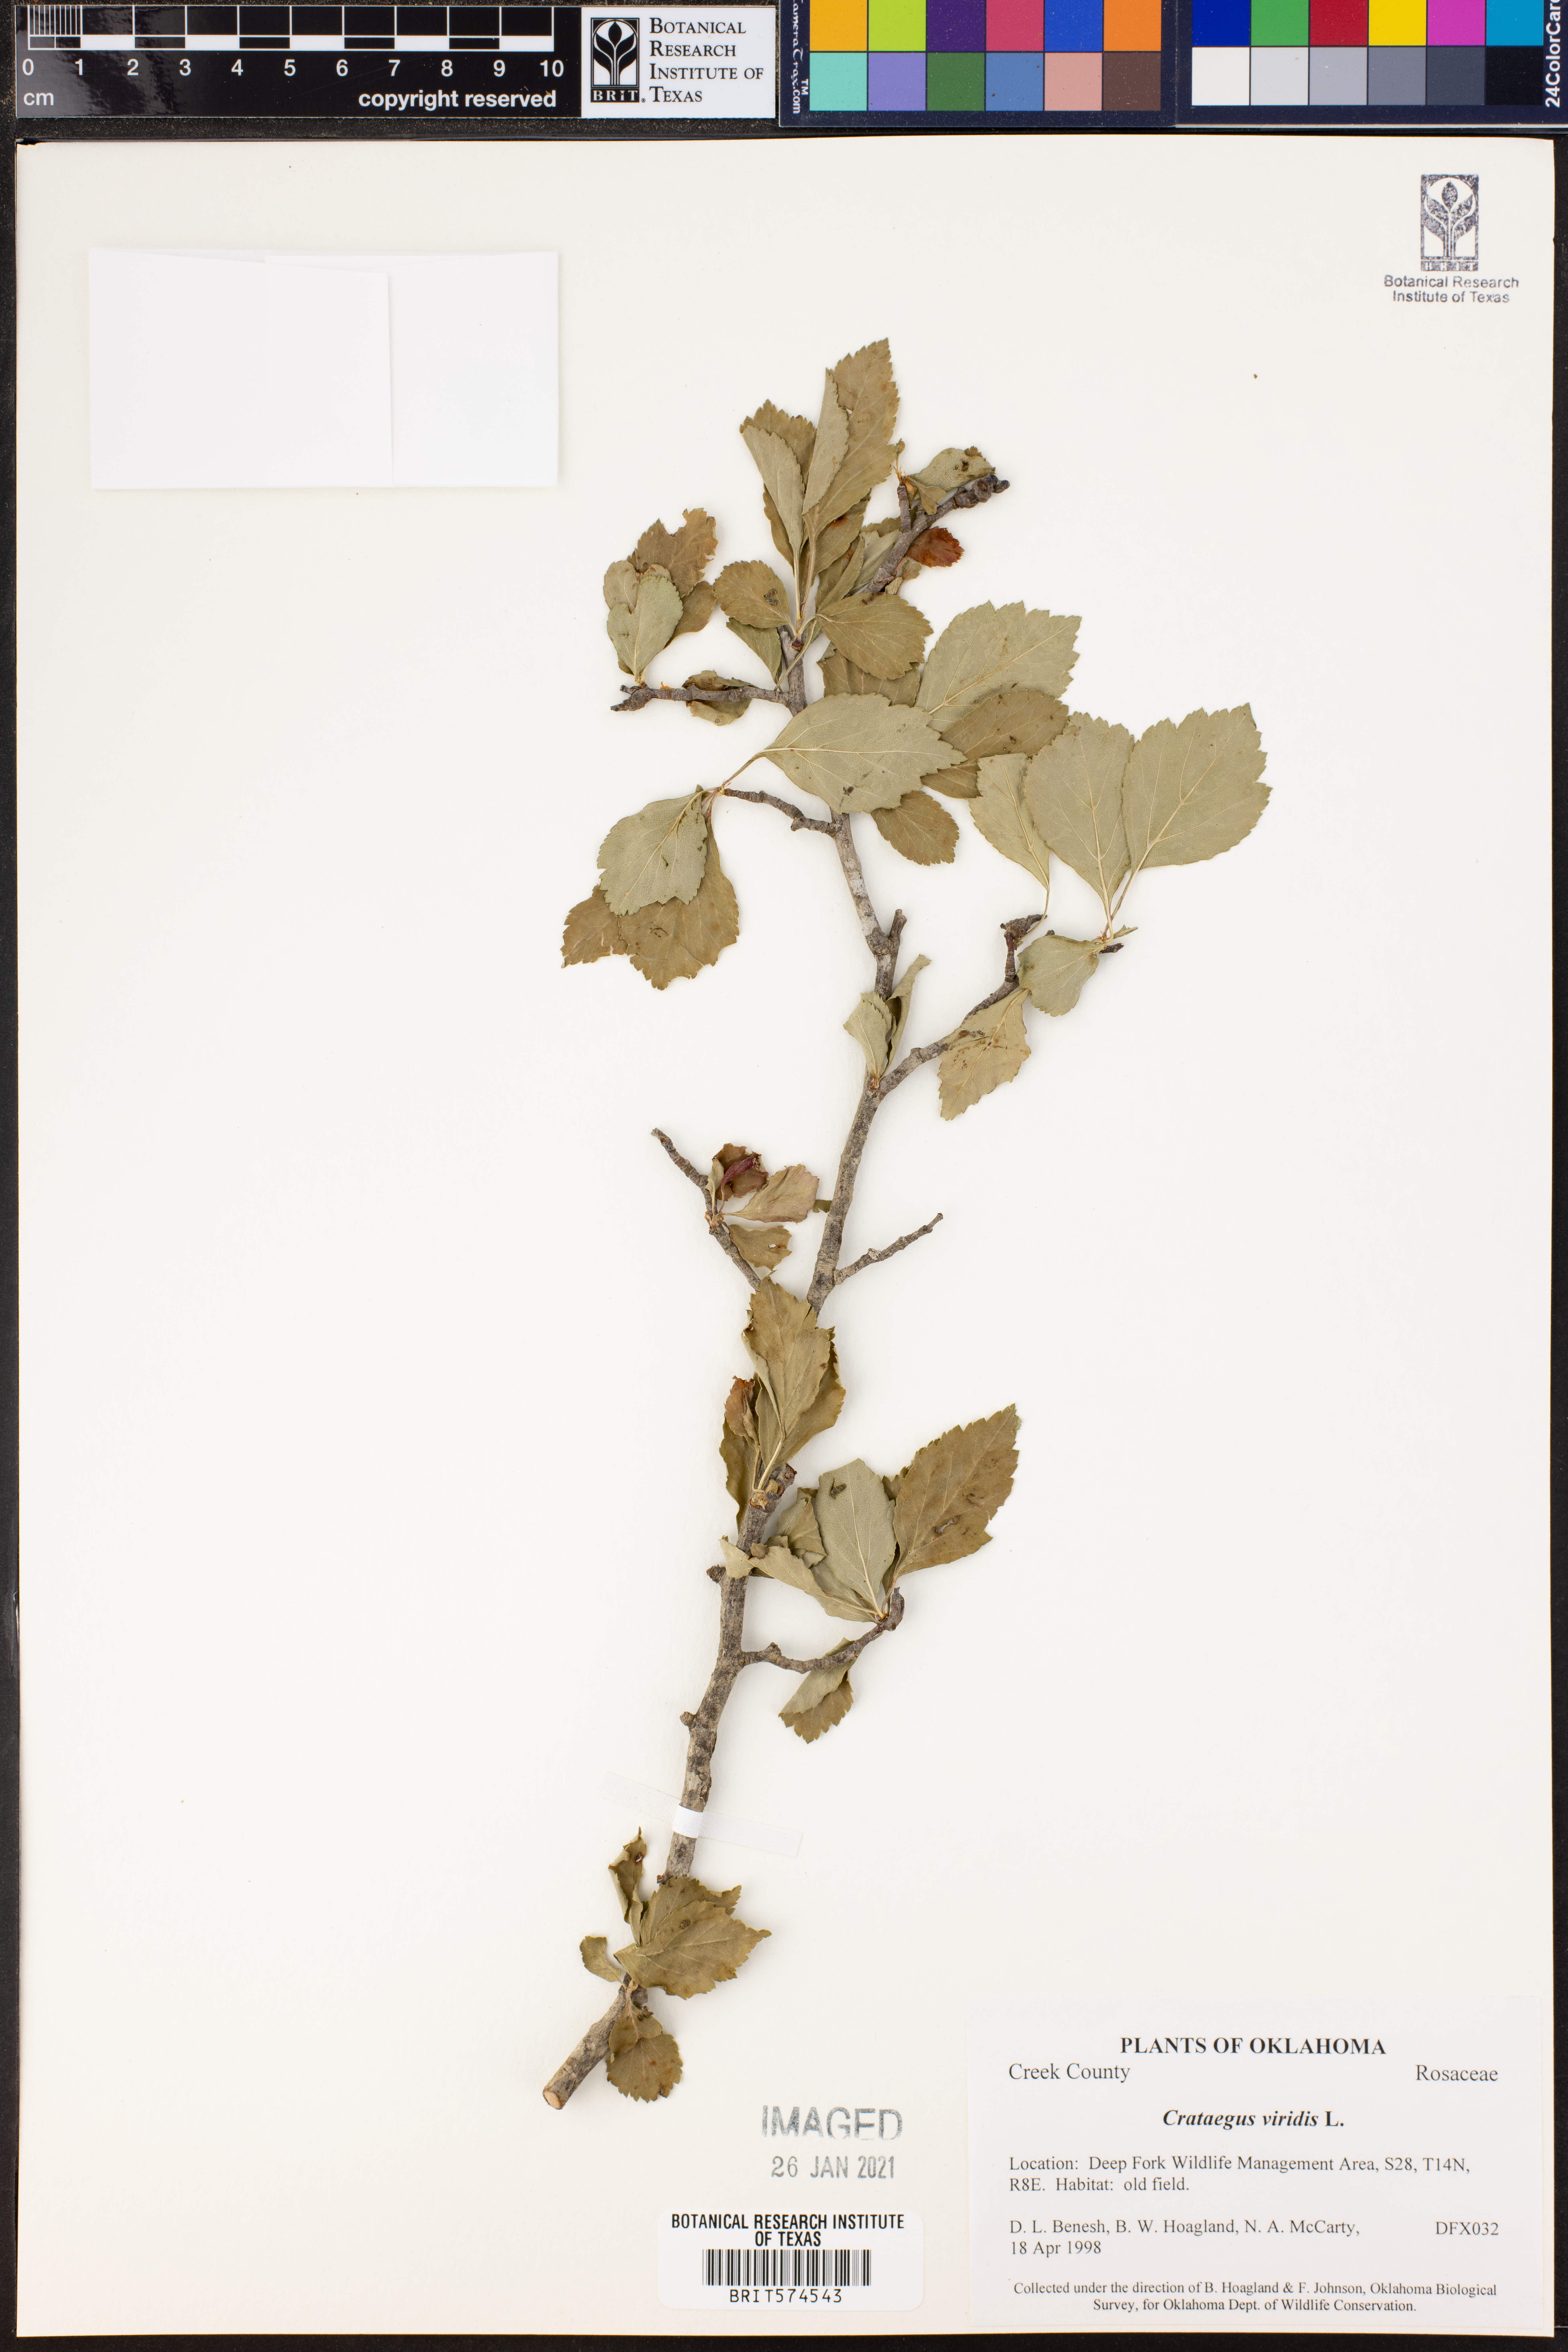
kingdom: Plantae
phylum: Tracheophyta
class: Magnoliopsida
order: Rosales
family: Rosaceae
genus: Crataegus
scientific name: Crataegus viridis
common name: Southernthorn
